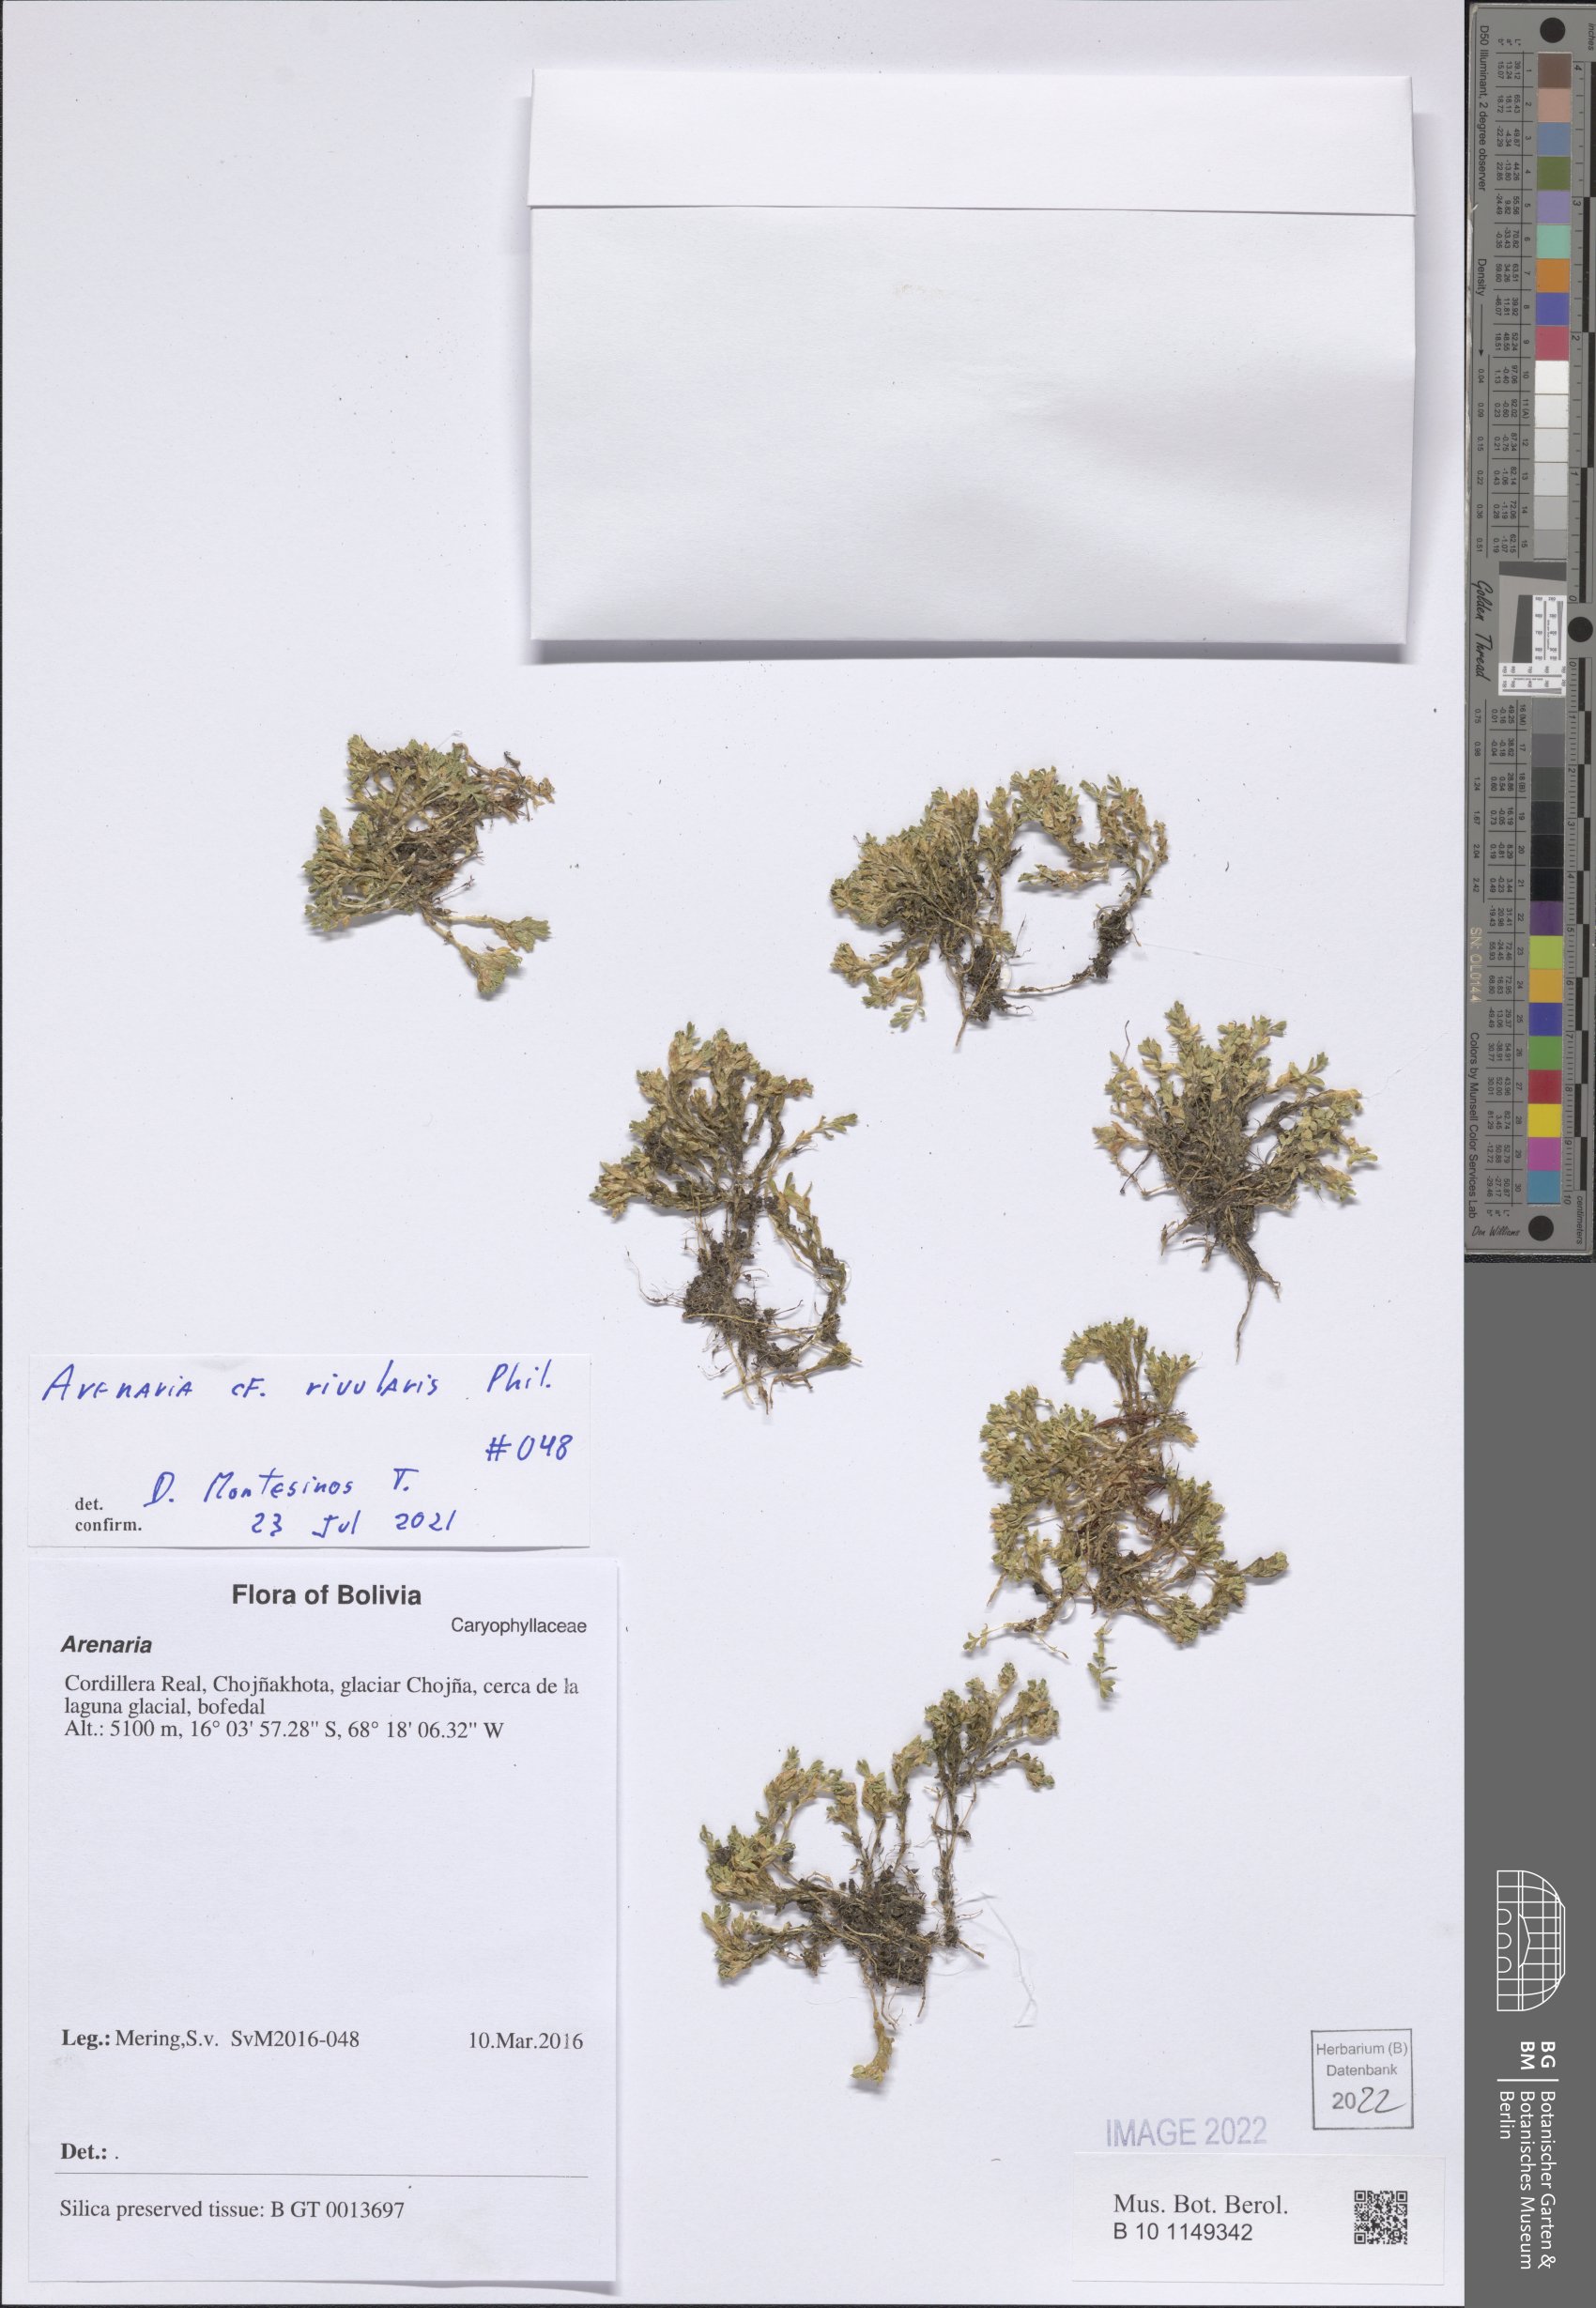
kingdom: Plantae
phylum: Tracheophyta
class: Magnoliopsida
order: Caryophyllales
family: Caryophyllaceae
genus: Arenaria
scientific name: Arenaria rivularis
